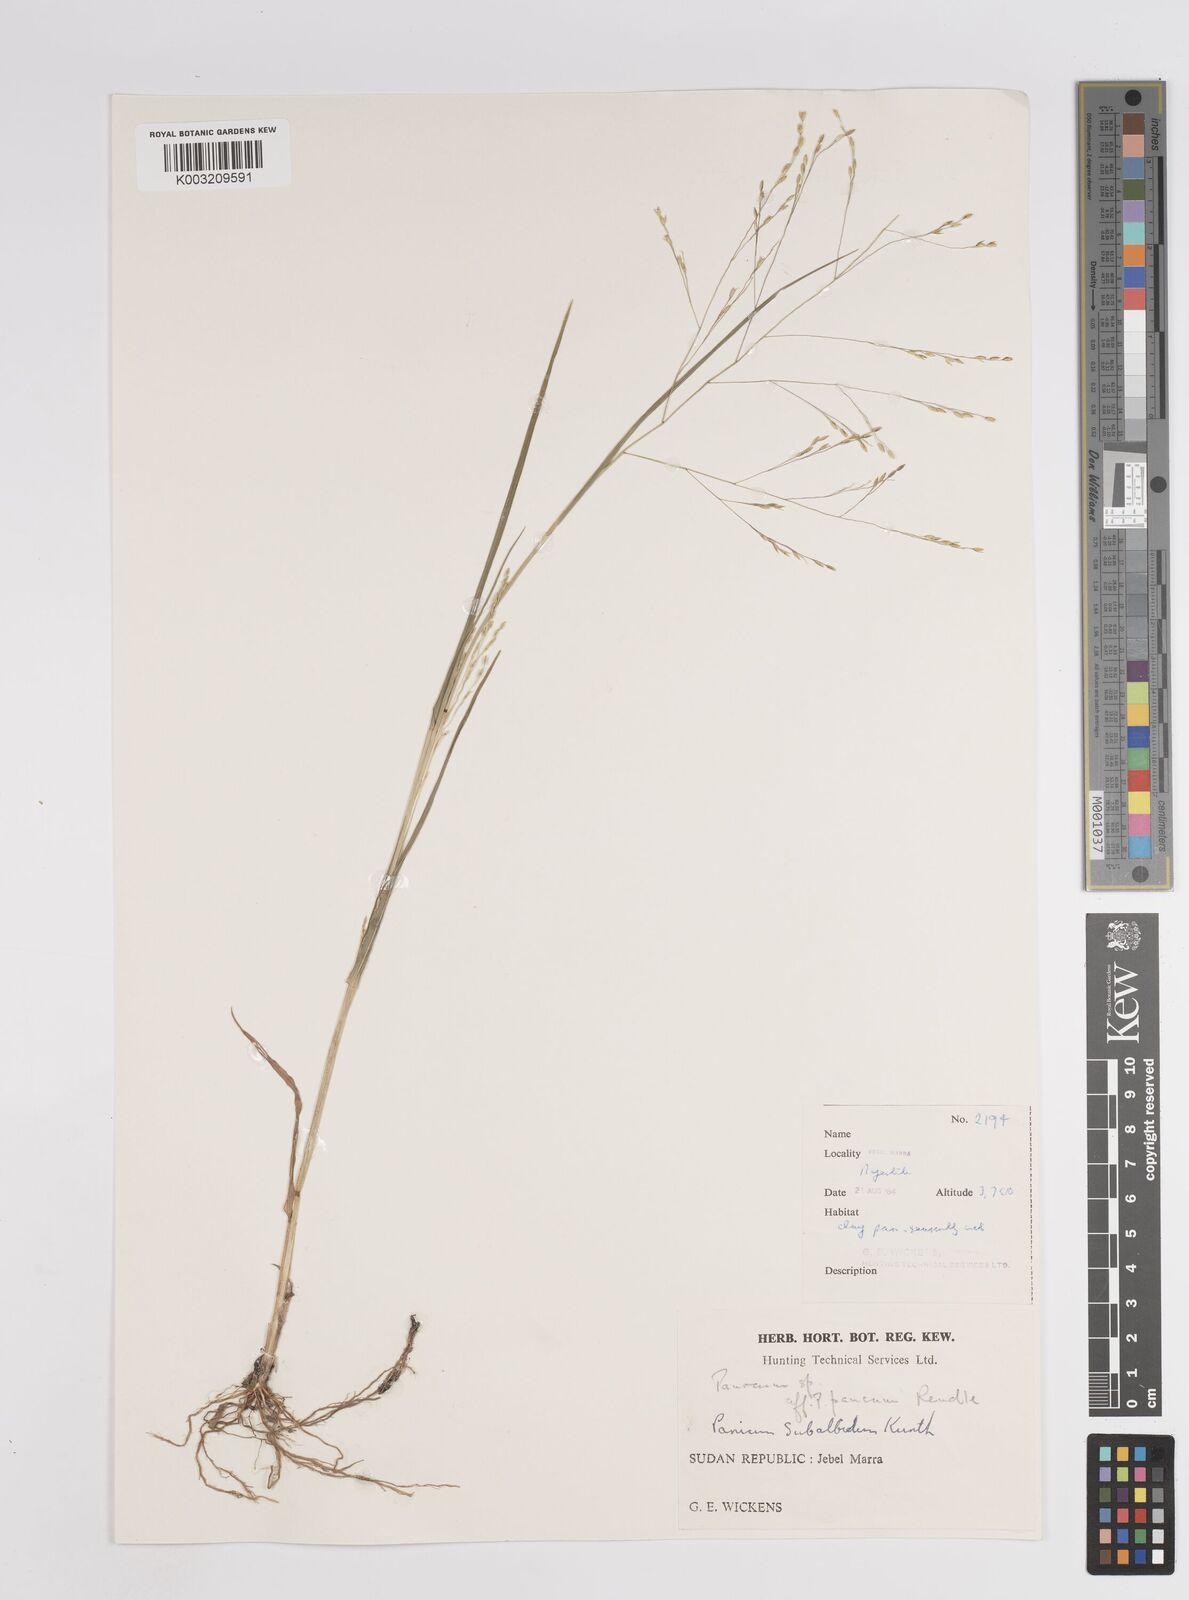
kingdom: Plantae
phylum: Tracheophyta
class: Liliopsida
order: Poales
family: Poaceae
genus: Panicum
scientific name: Panicum subalbidum
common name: Elbow buffalo grass
